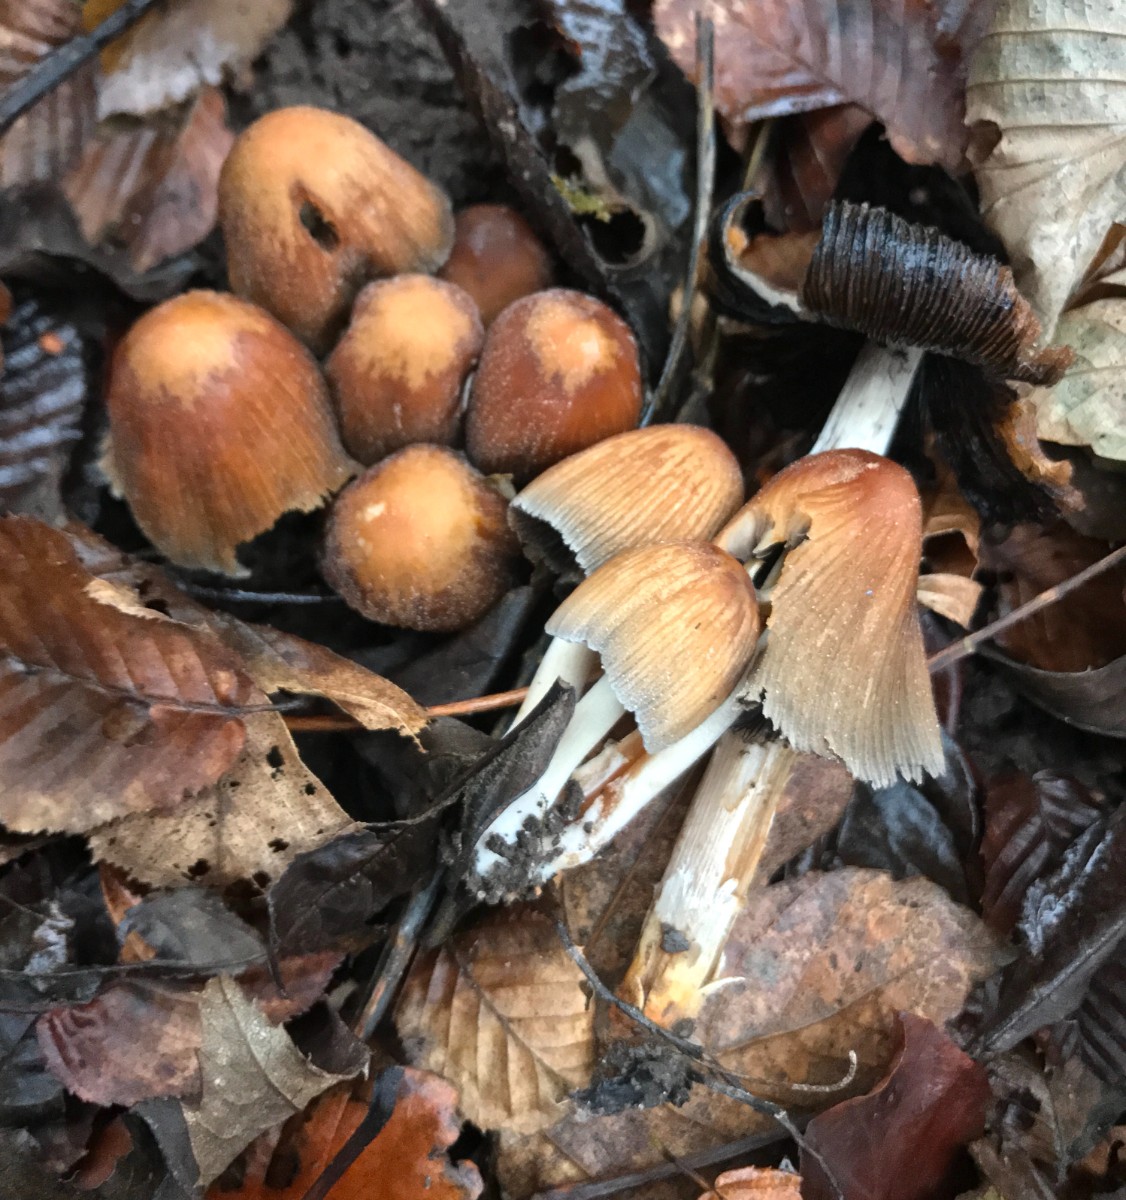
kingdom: Fungi
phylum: Basidiomycota
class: Agaricomycetes
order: Agaricales
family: Psathyrellaceae
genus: Coprinellus
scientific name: Coprinellus micaceus
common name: glimmer-blækhat
